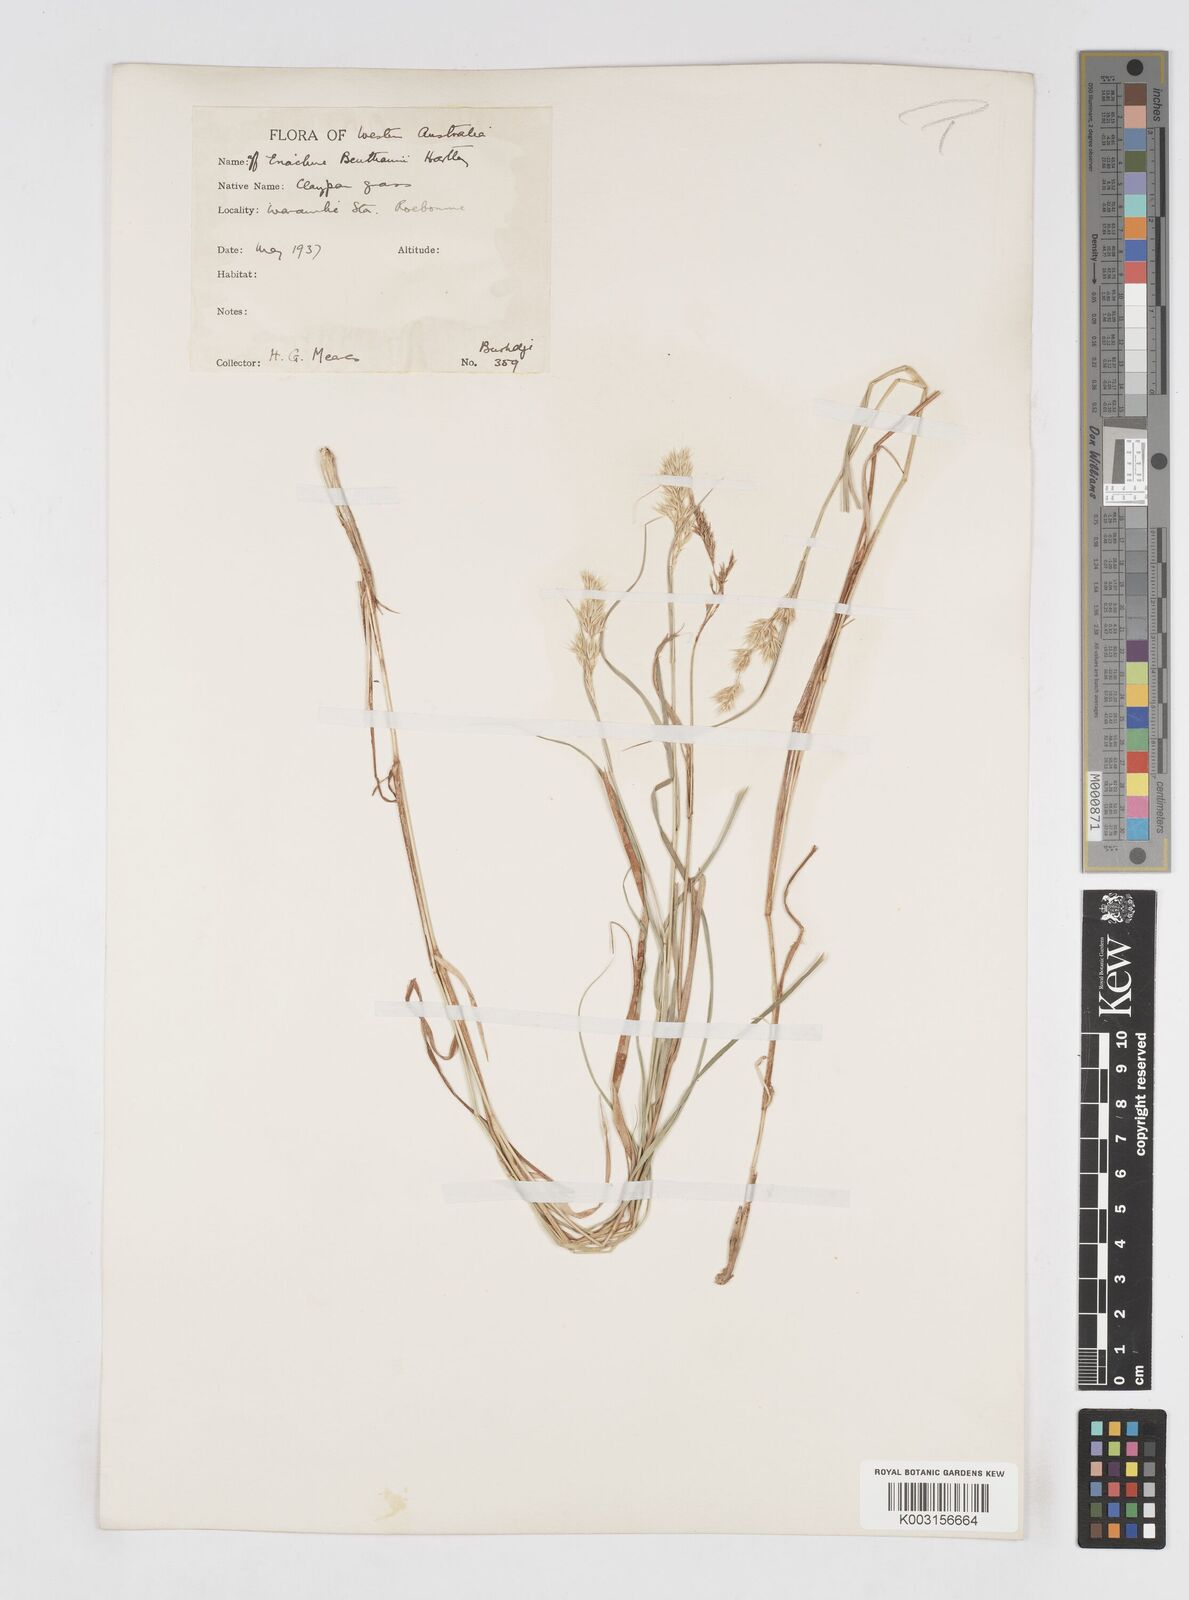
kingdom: Plantae
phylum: Tracheophyta
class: Liliopsida
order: Poales
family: Poaceae
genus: Eriachne
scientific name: Eriachne benthamii
